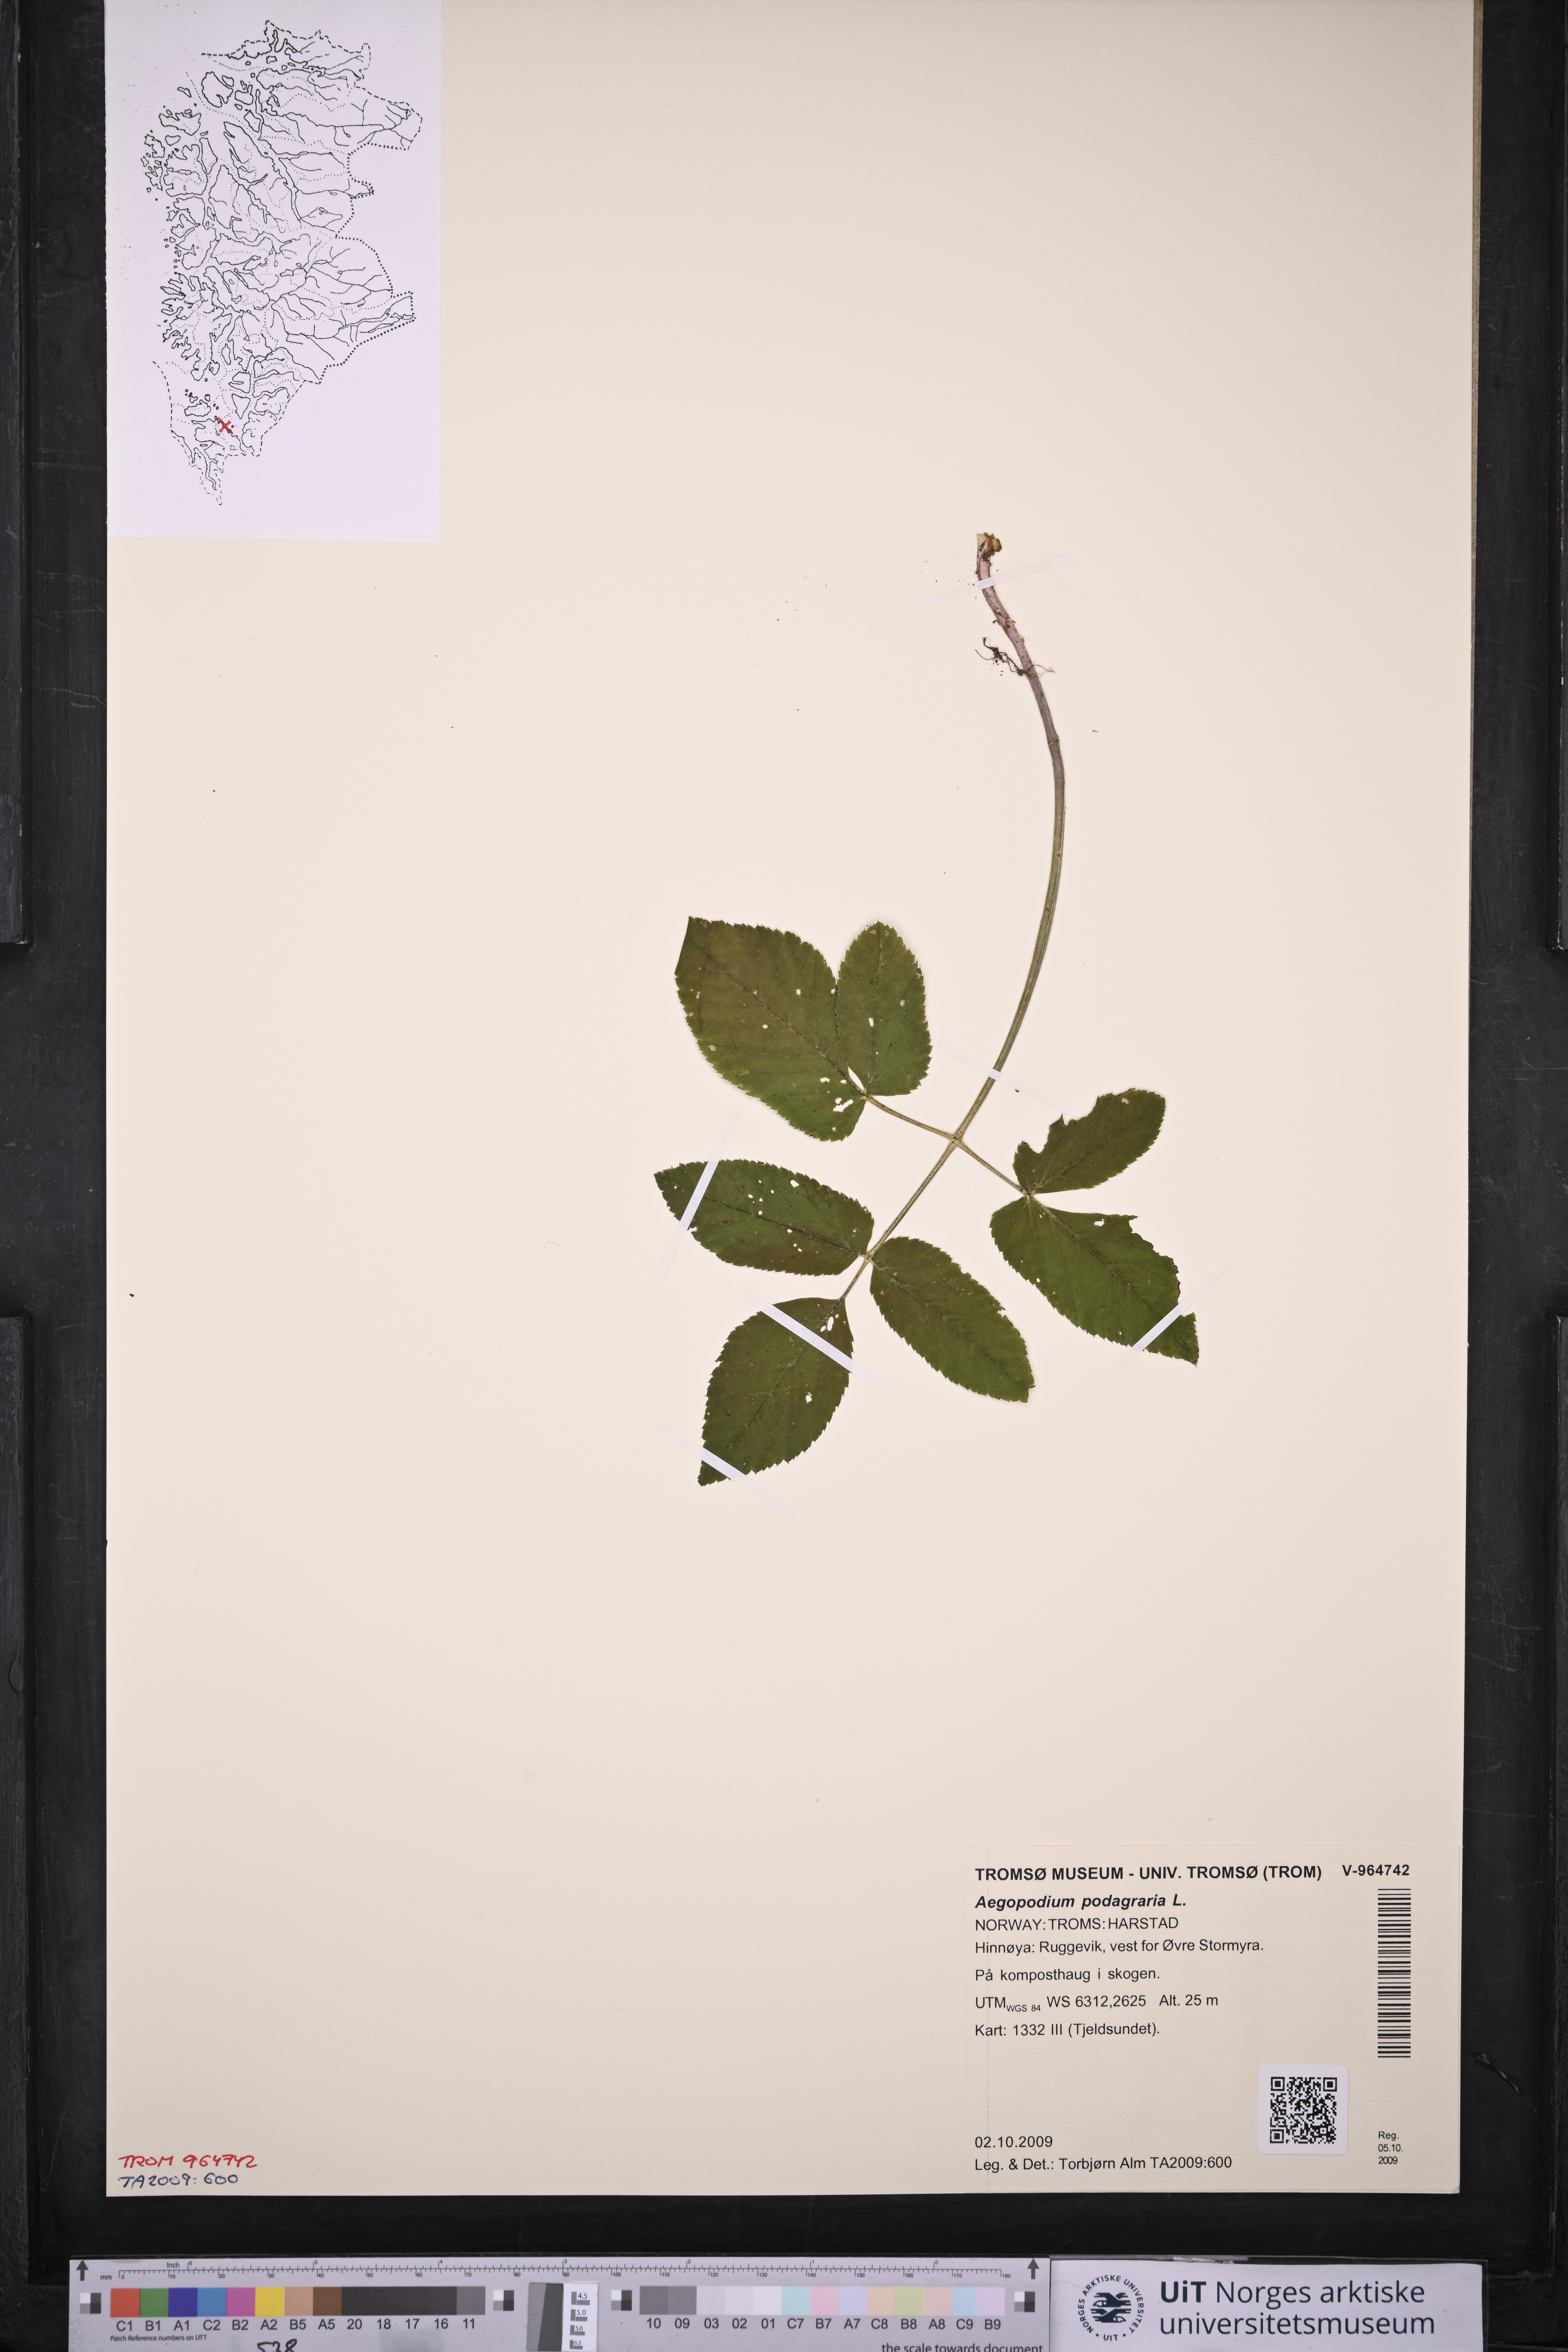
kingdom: Plantae
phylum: Tracheophyta
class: Magnoliopsida
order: Apiales
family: Apiaceae
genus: Aegopodium
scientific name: Aegopodium podagraria
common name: Ground-elder
